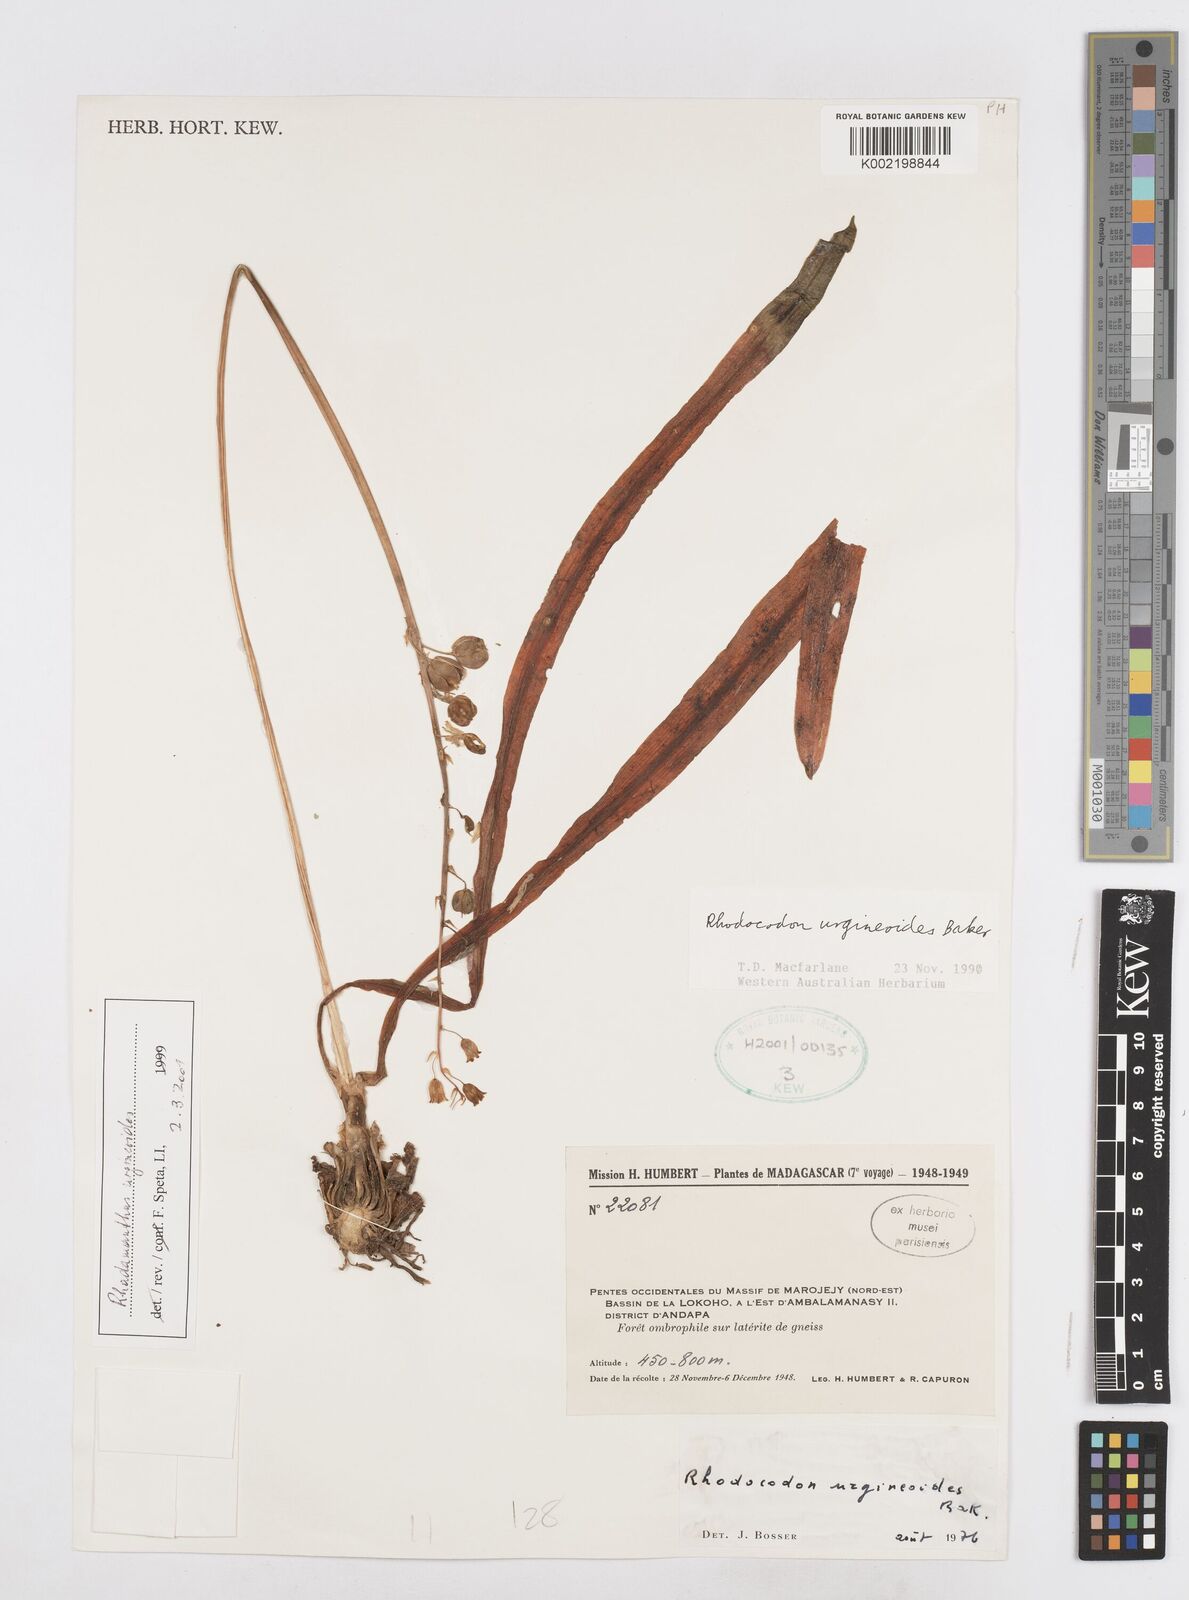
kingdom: Plantae
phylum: Tracheophyta
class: Liliopsida
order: Asparagales
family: Asparagaceae
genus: Drimia
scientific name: Drimia urgineoides
